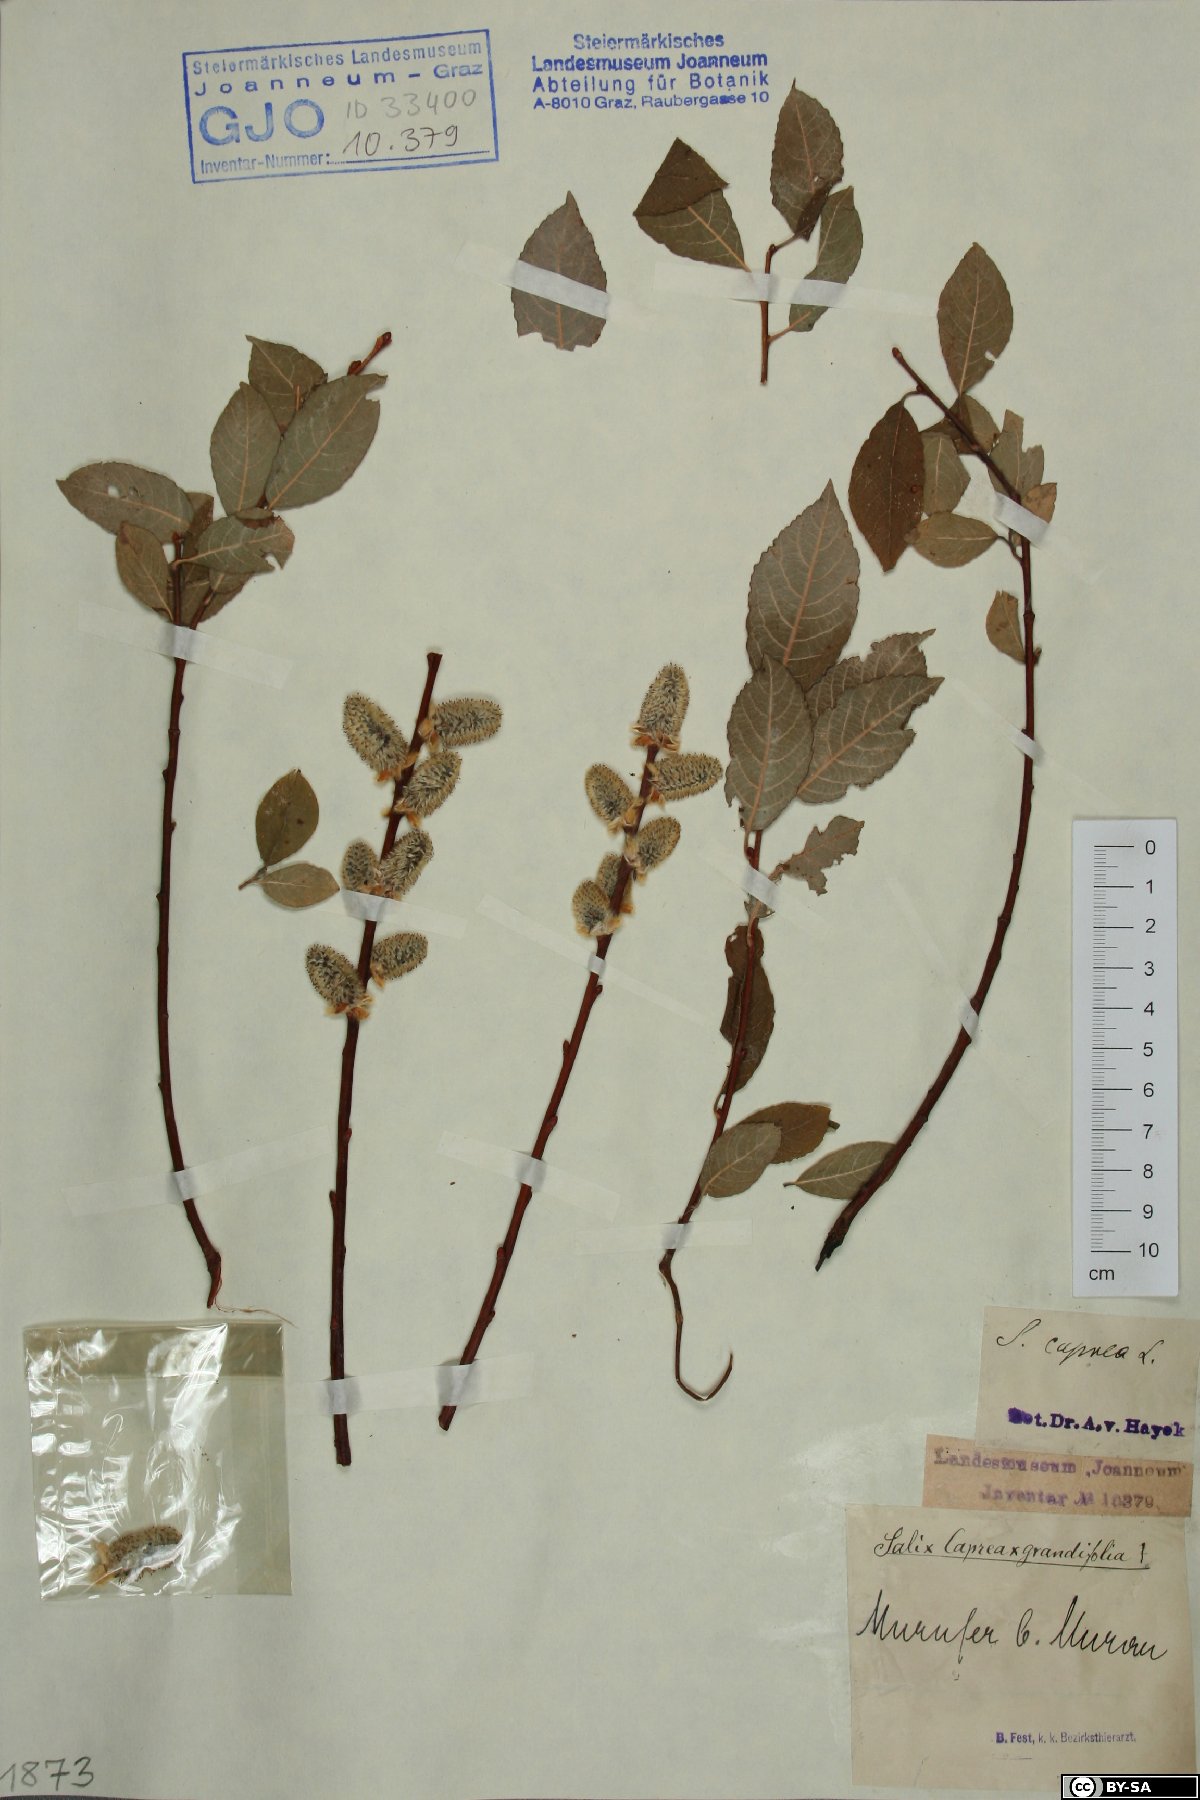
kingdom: Plantae
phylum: Tracheophyta
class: Magnoliopsida
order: Malpighiales
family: Salicaceae
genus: Salix
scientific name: Salix caprea
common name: Goat willow
